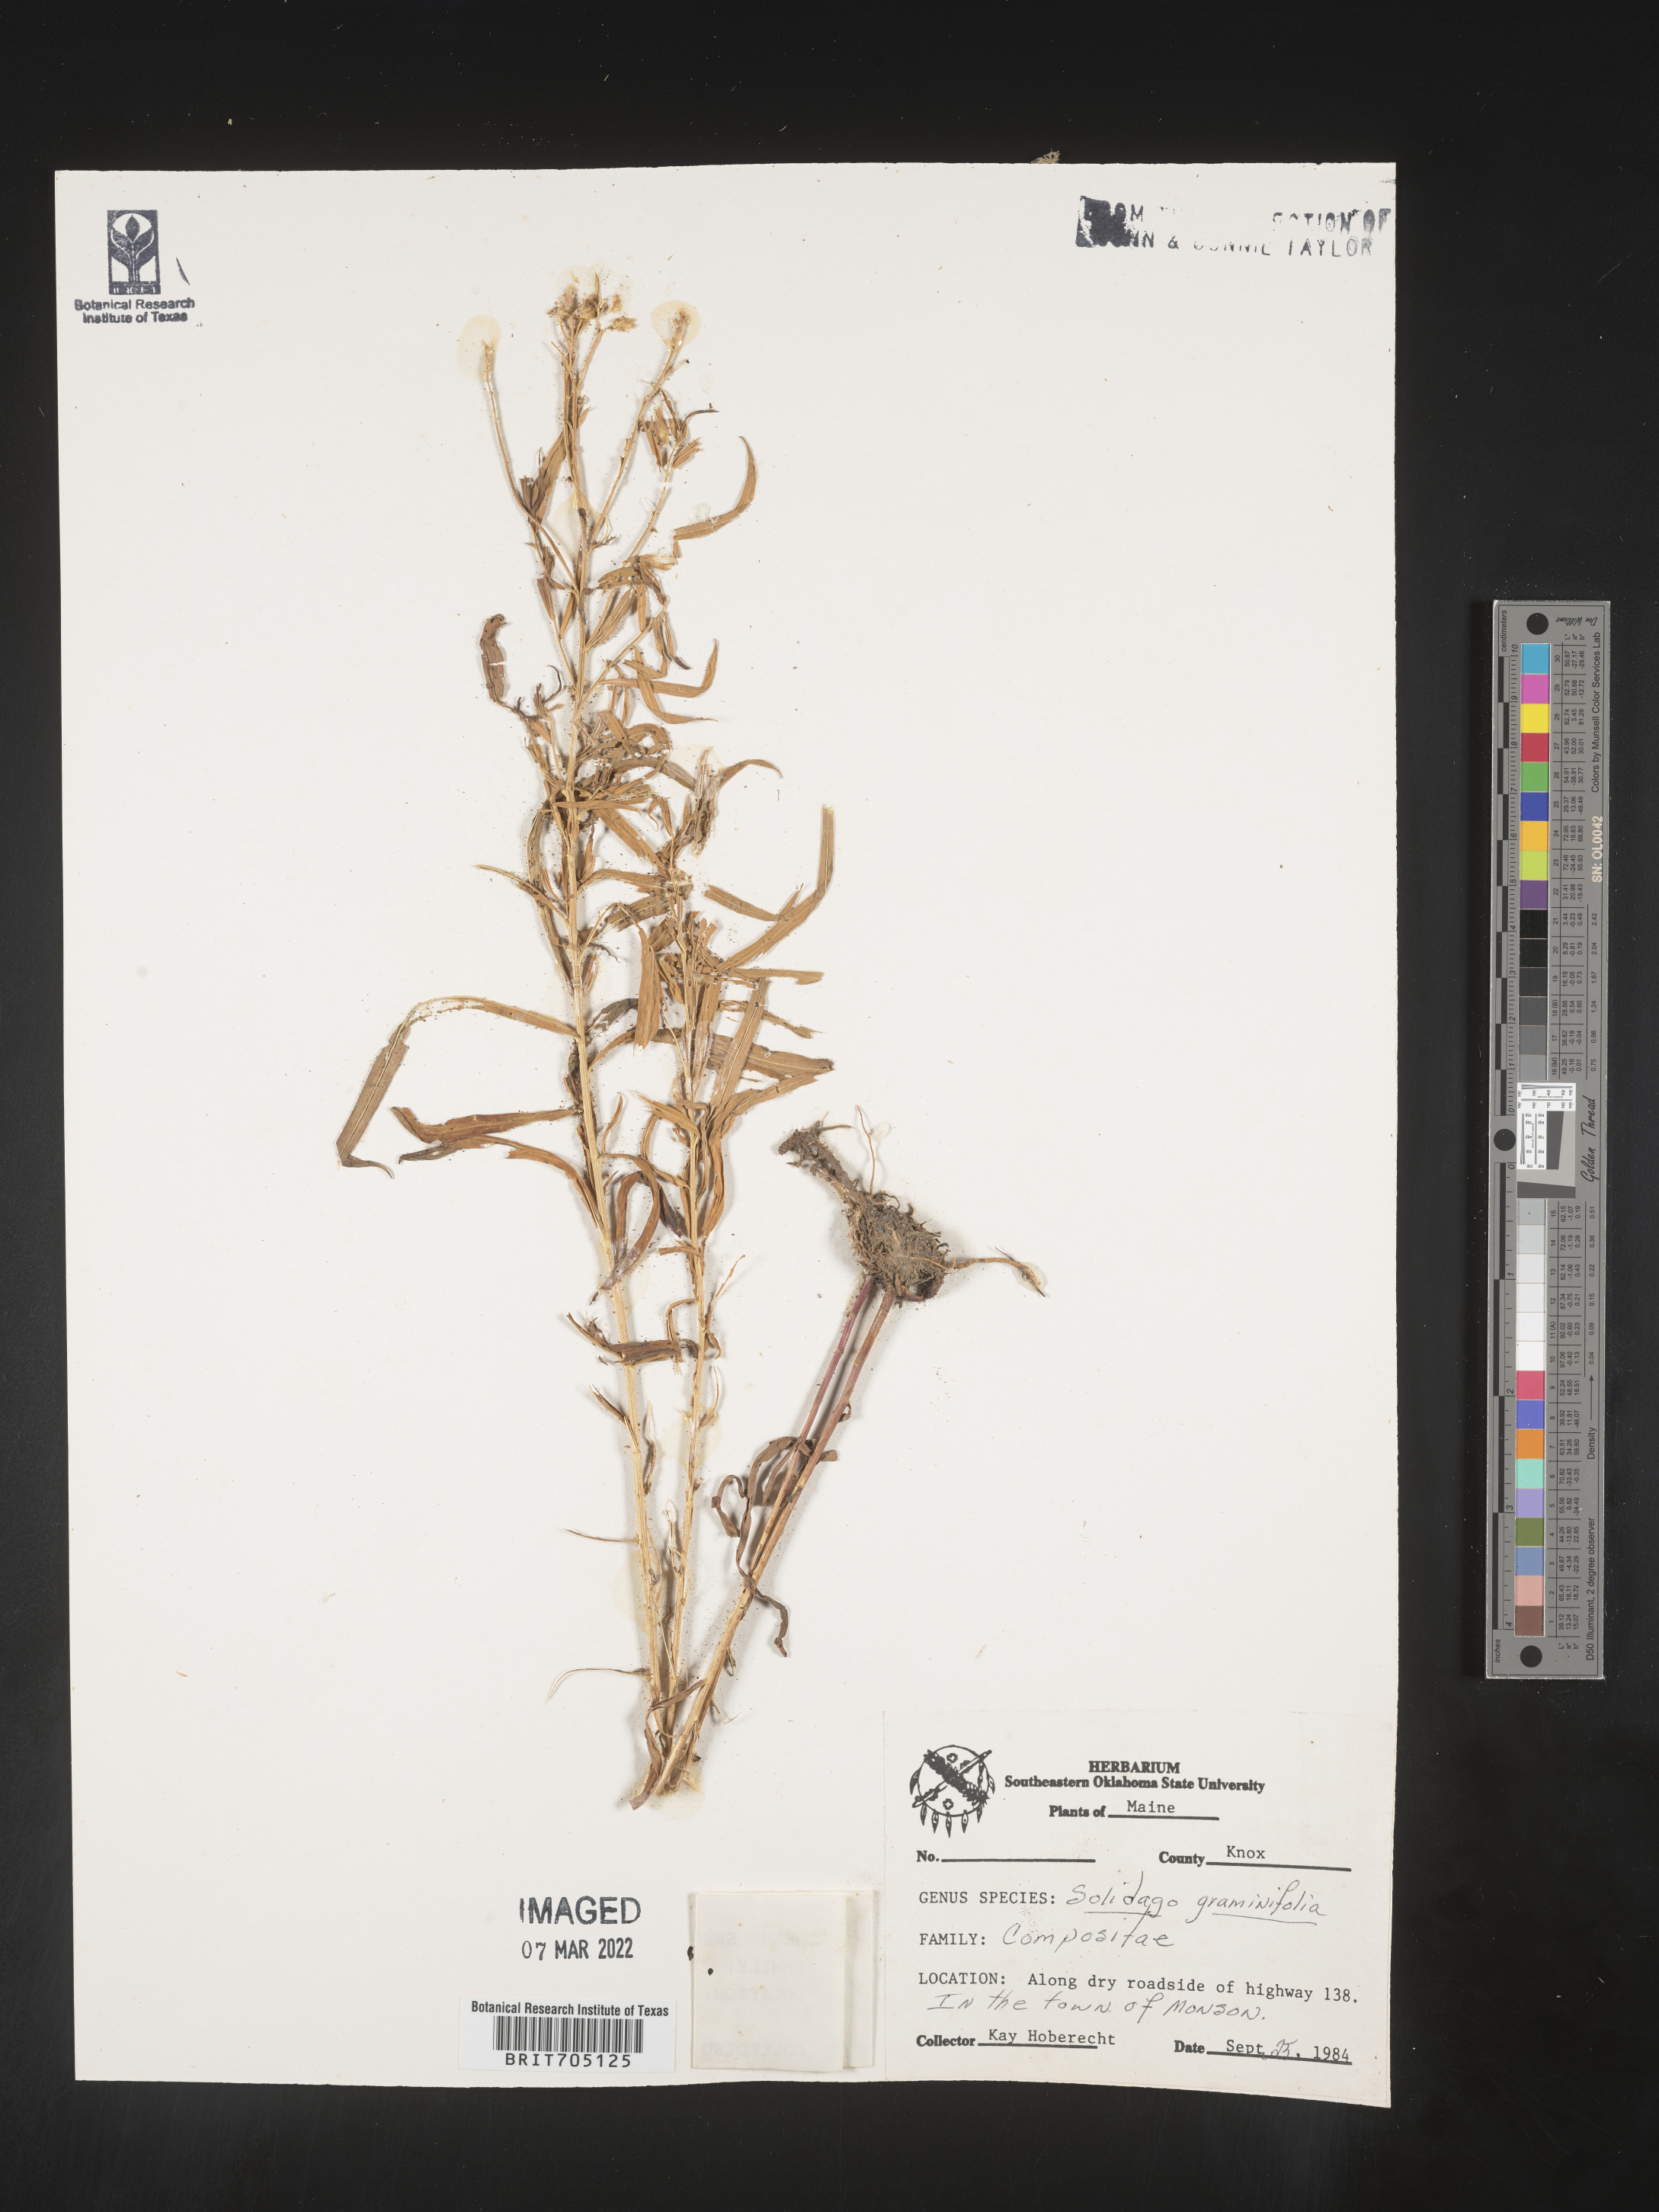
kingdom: Plantae
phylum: Tracheophyta
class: Magnoliopsida
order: Asterales
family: Asteraceae
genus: Euthamia
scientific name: Euthamia graminifolia
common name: Common goldentop
